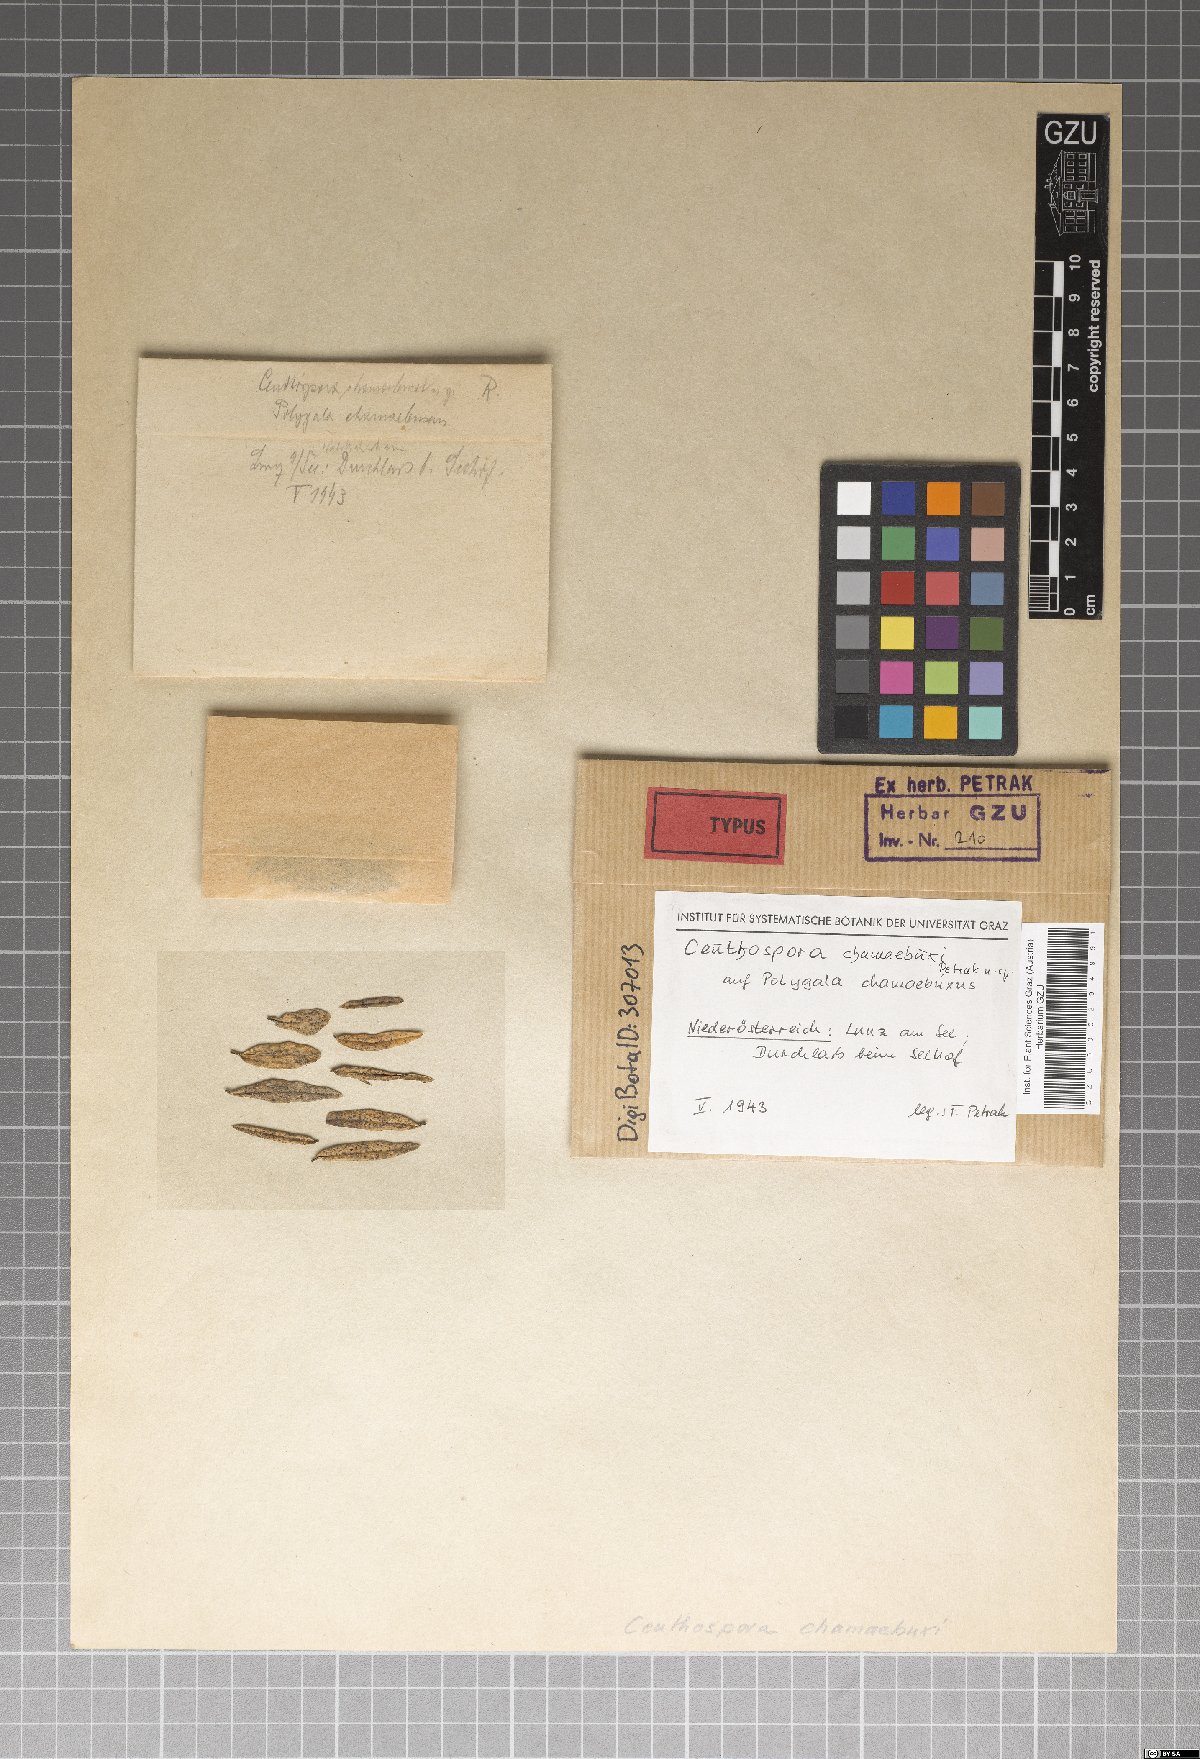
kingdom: Fungi
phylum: Ascomycota
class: Leotiomycetes
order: Phacidiales
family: Phacidiaceae
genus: Ceuthospora
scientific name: Ceuthospora chamaebuxi
